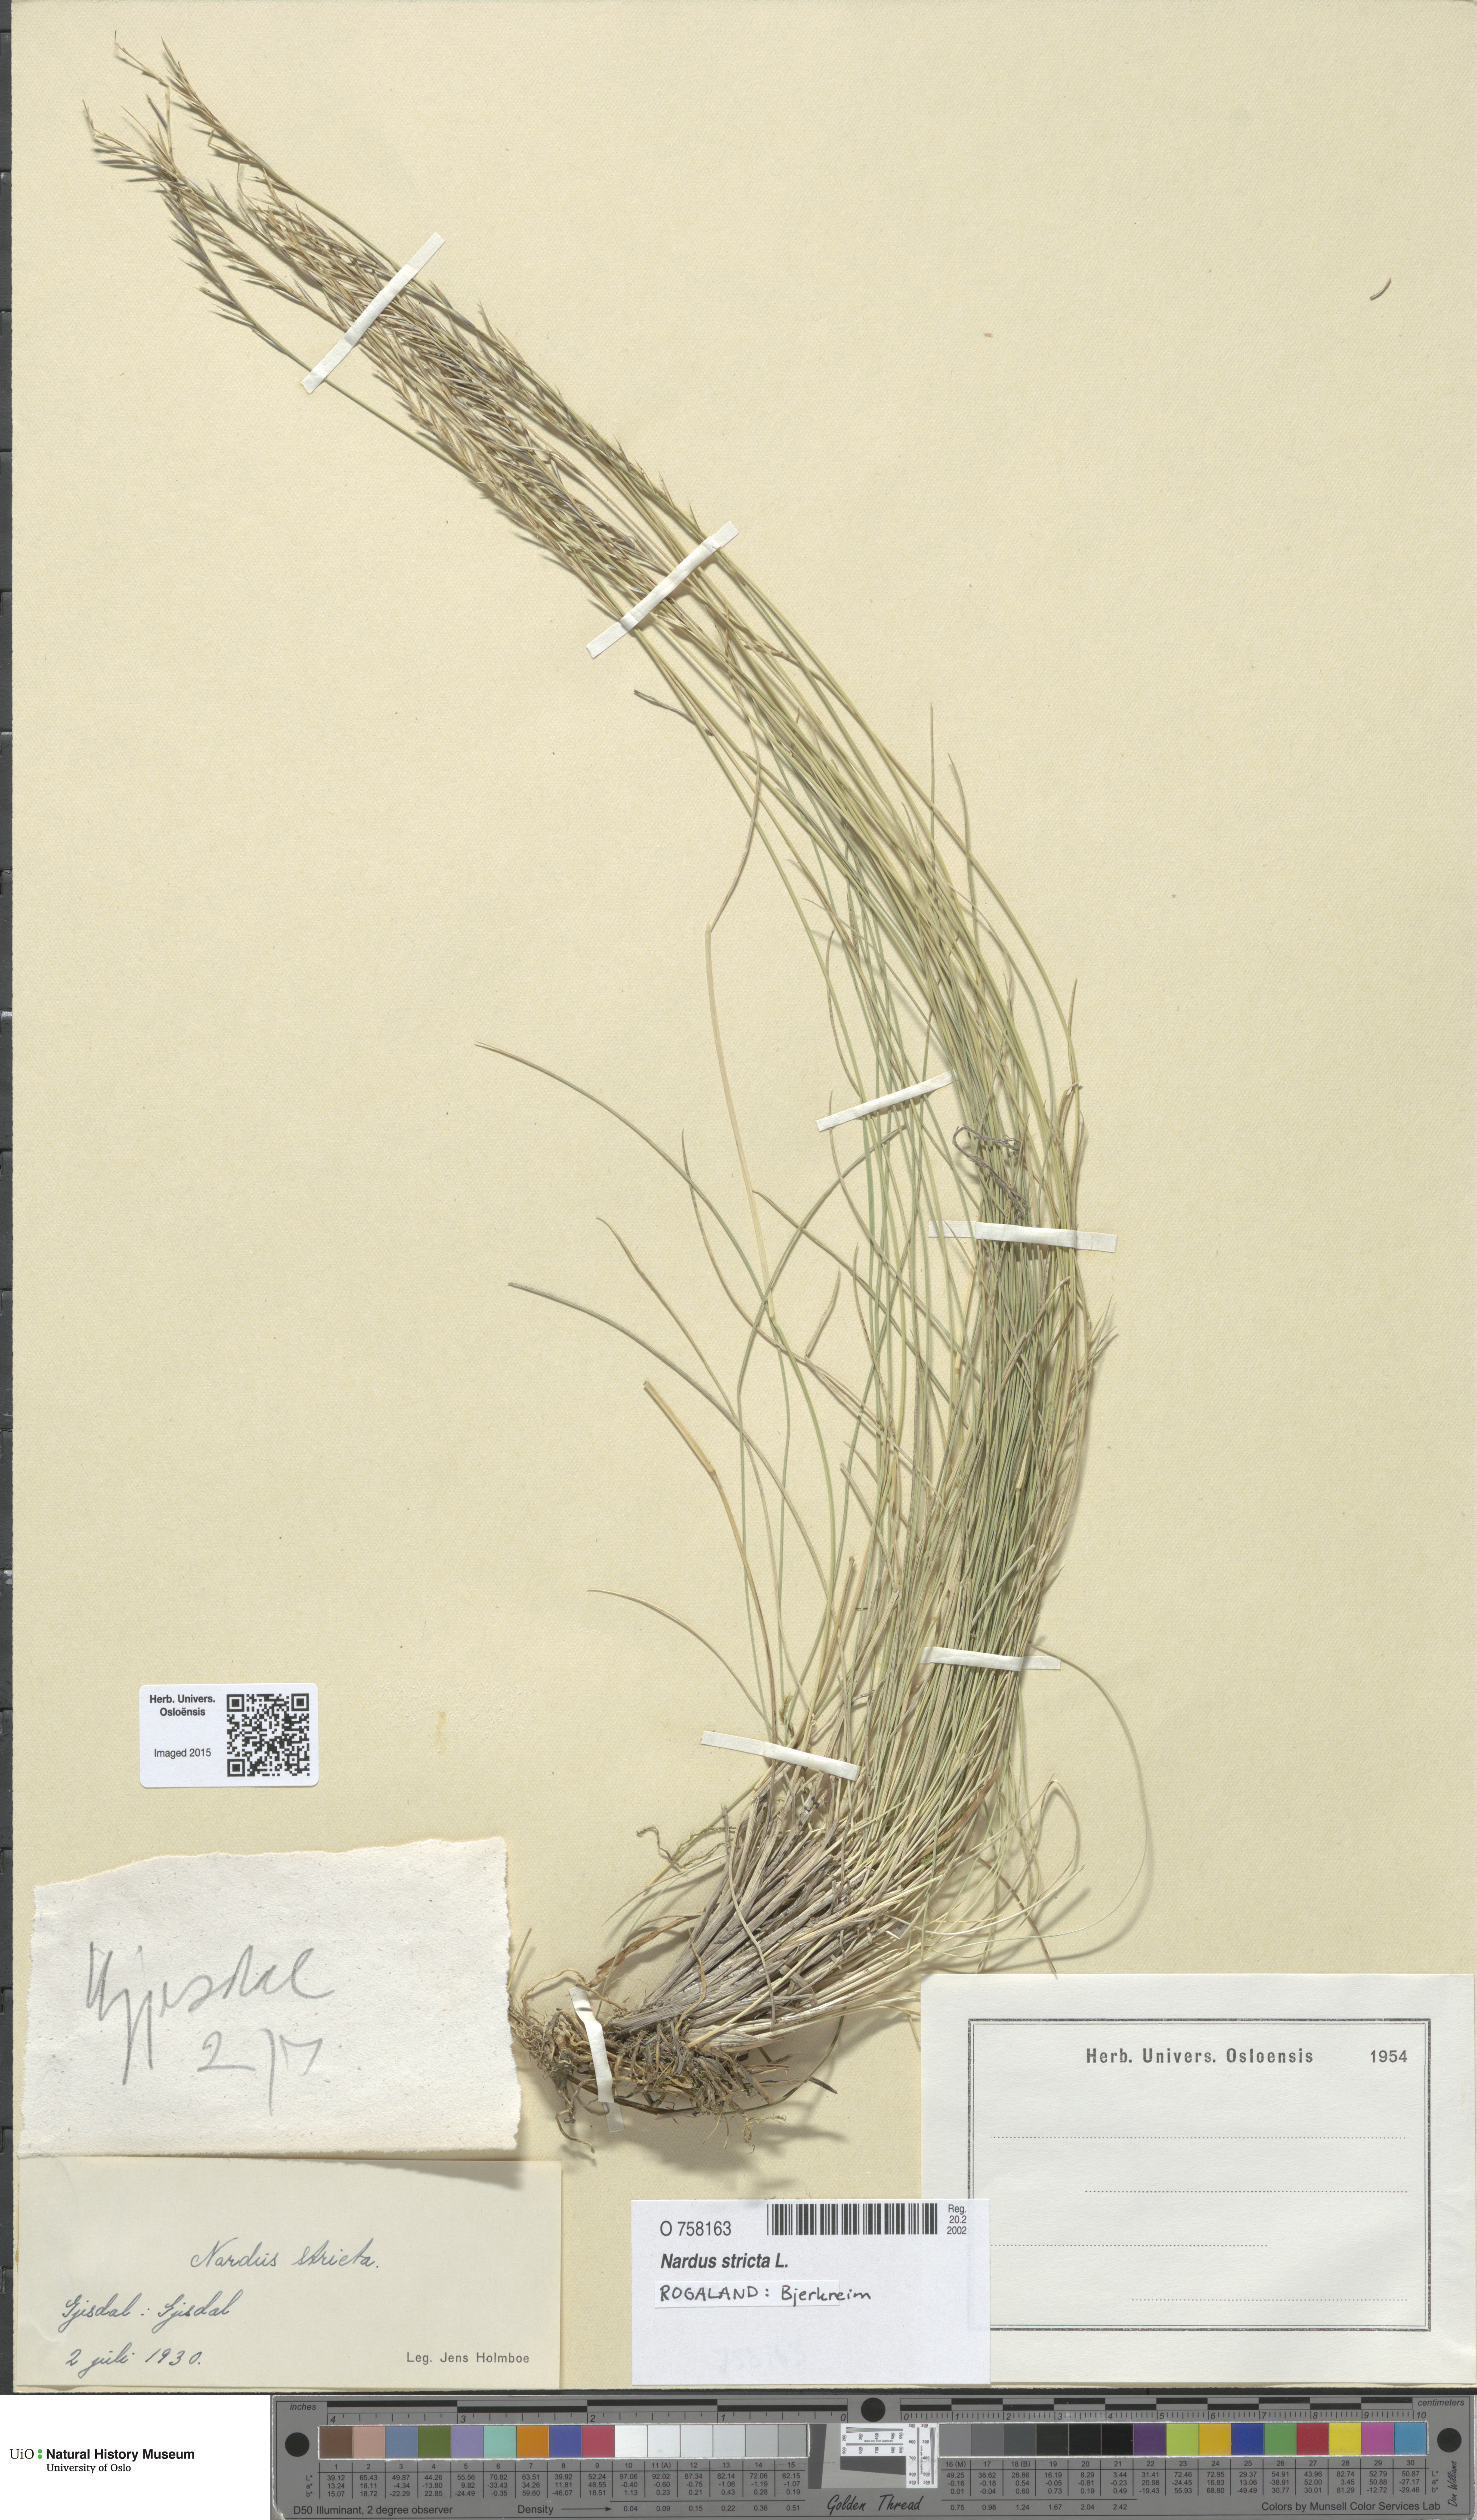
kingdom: Plantae
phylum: Tracheophyta
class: Liliopsida
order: Poales
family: Poaceae
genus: Nardus
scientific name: Nardus stricta
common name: Mat-grass
